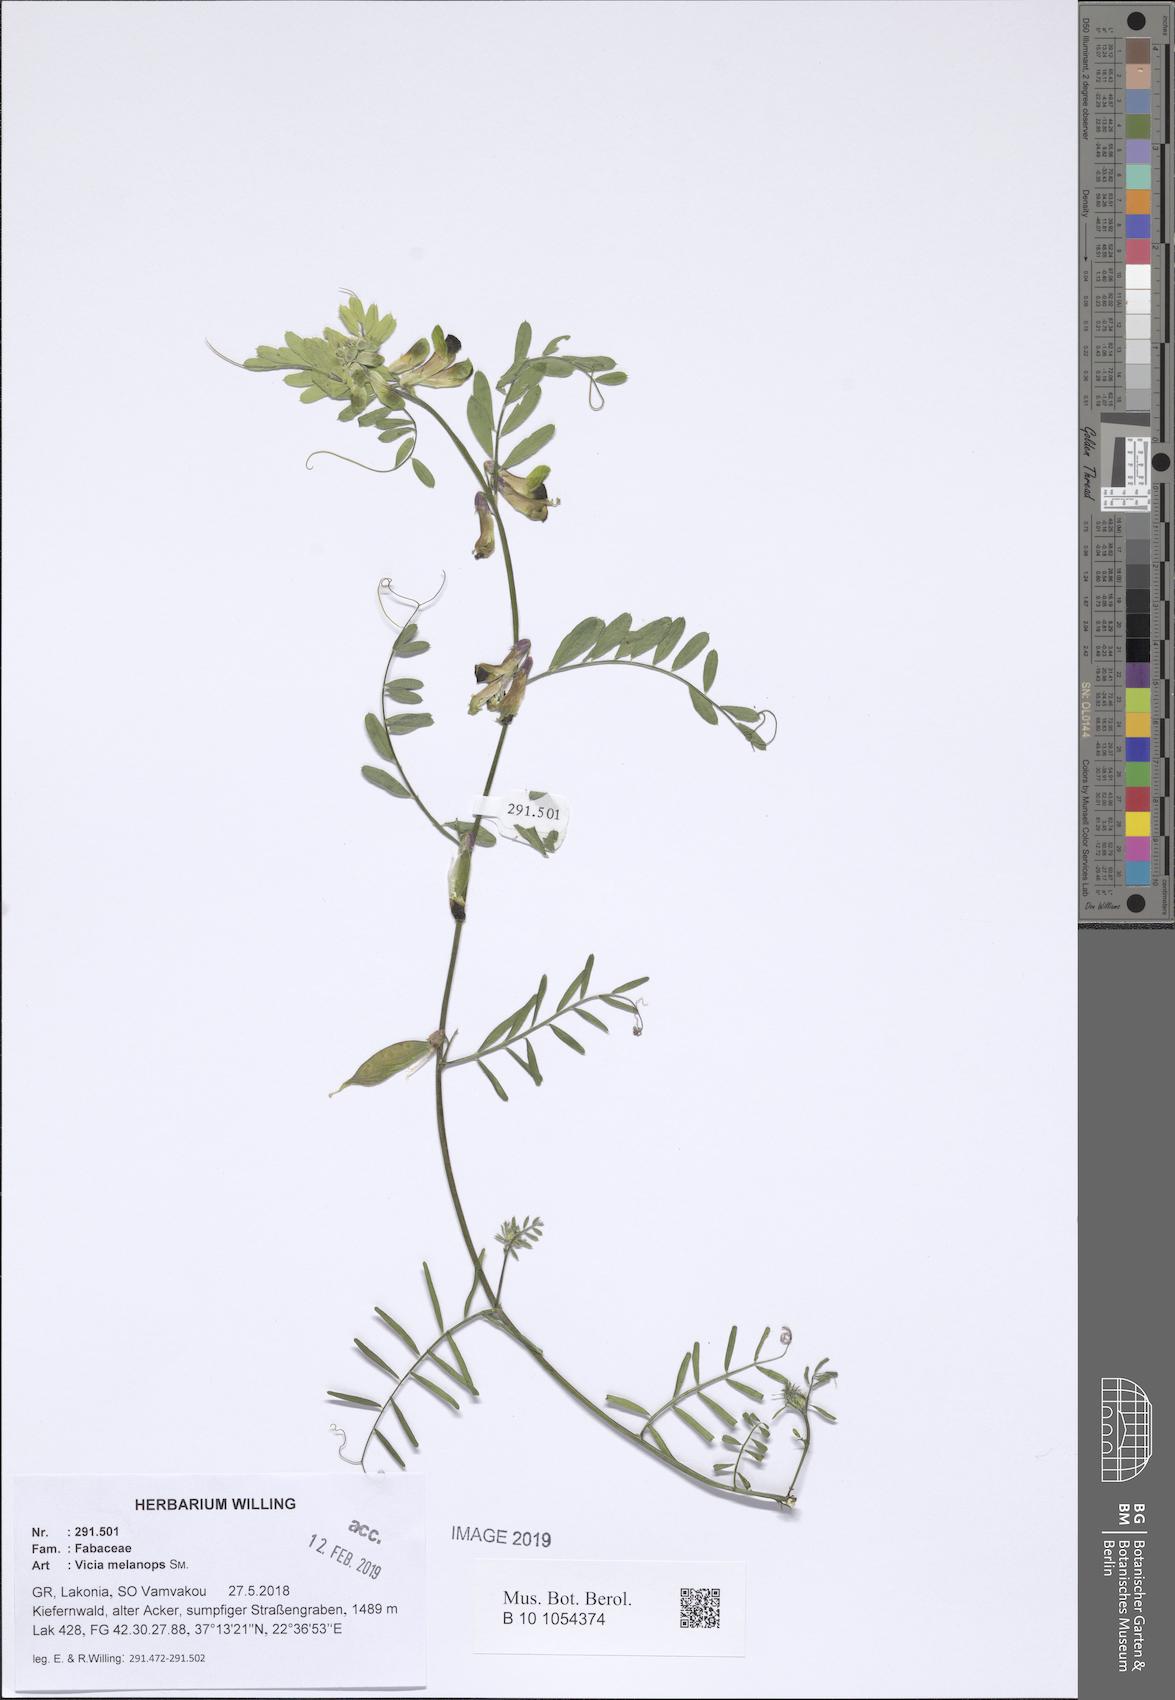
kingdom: Plantae
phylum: Tracheophyta
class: Magnoliopsida
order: Fabales
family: Fabaceae
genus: Vicia
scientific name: Vicia melanops
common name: Black-eyed vetch
